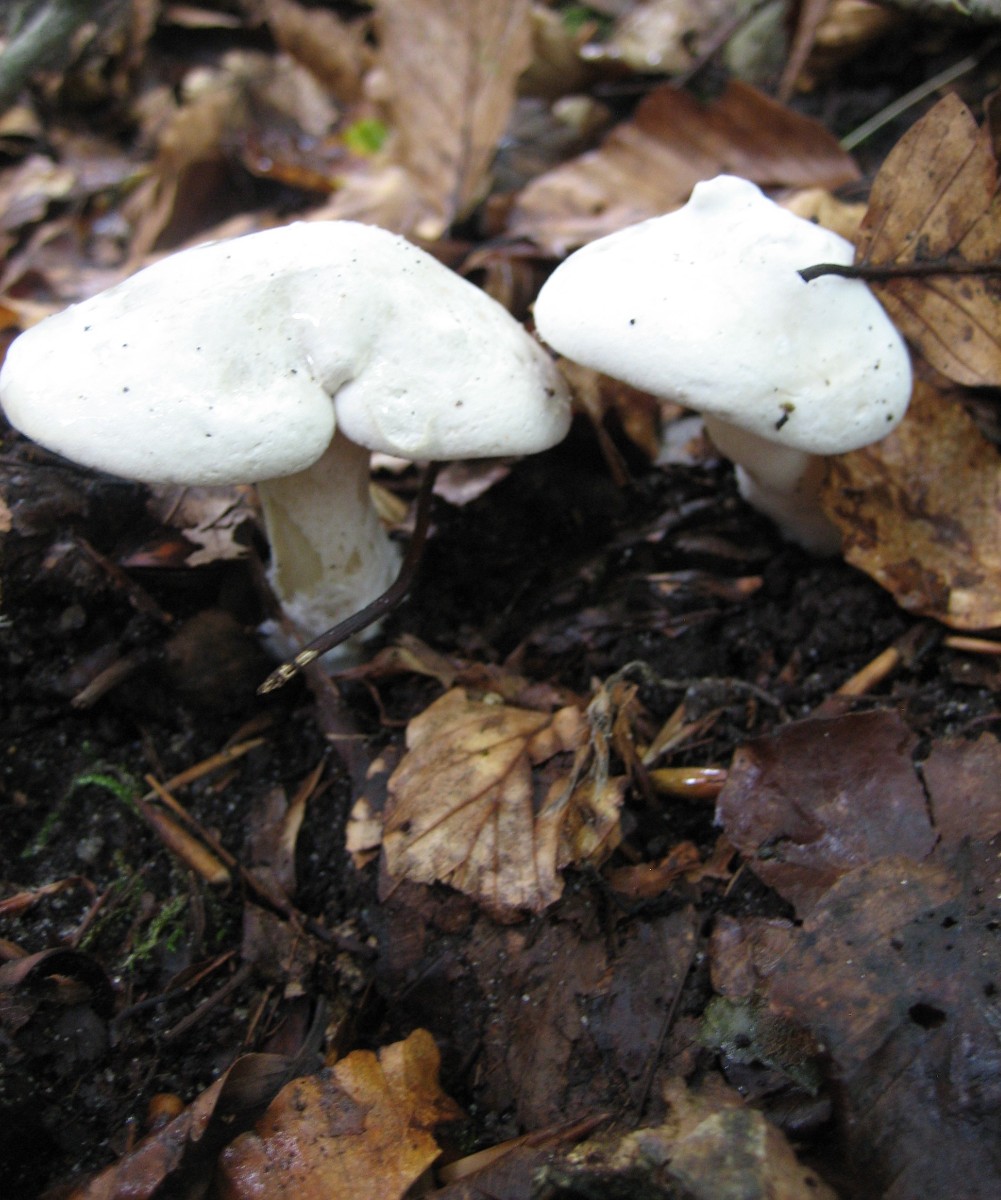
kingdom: Fungi
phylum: Basidiomycota
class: Agaricomycetes
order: Agaricales
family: Entolomataceae
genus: Clitopilus
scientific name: Clitopilus prunulus
